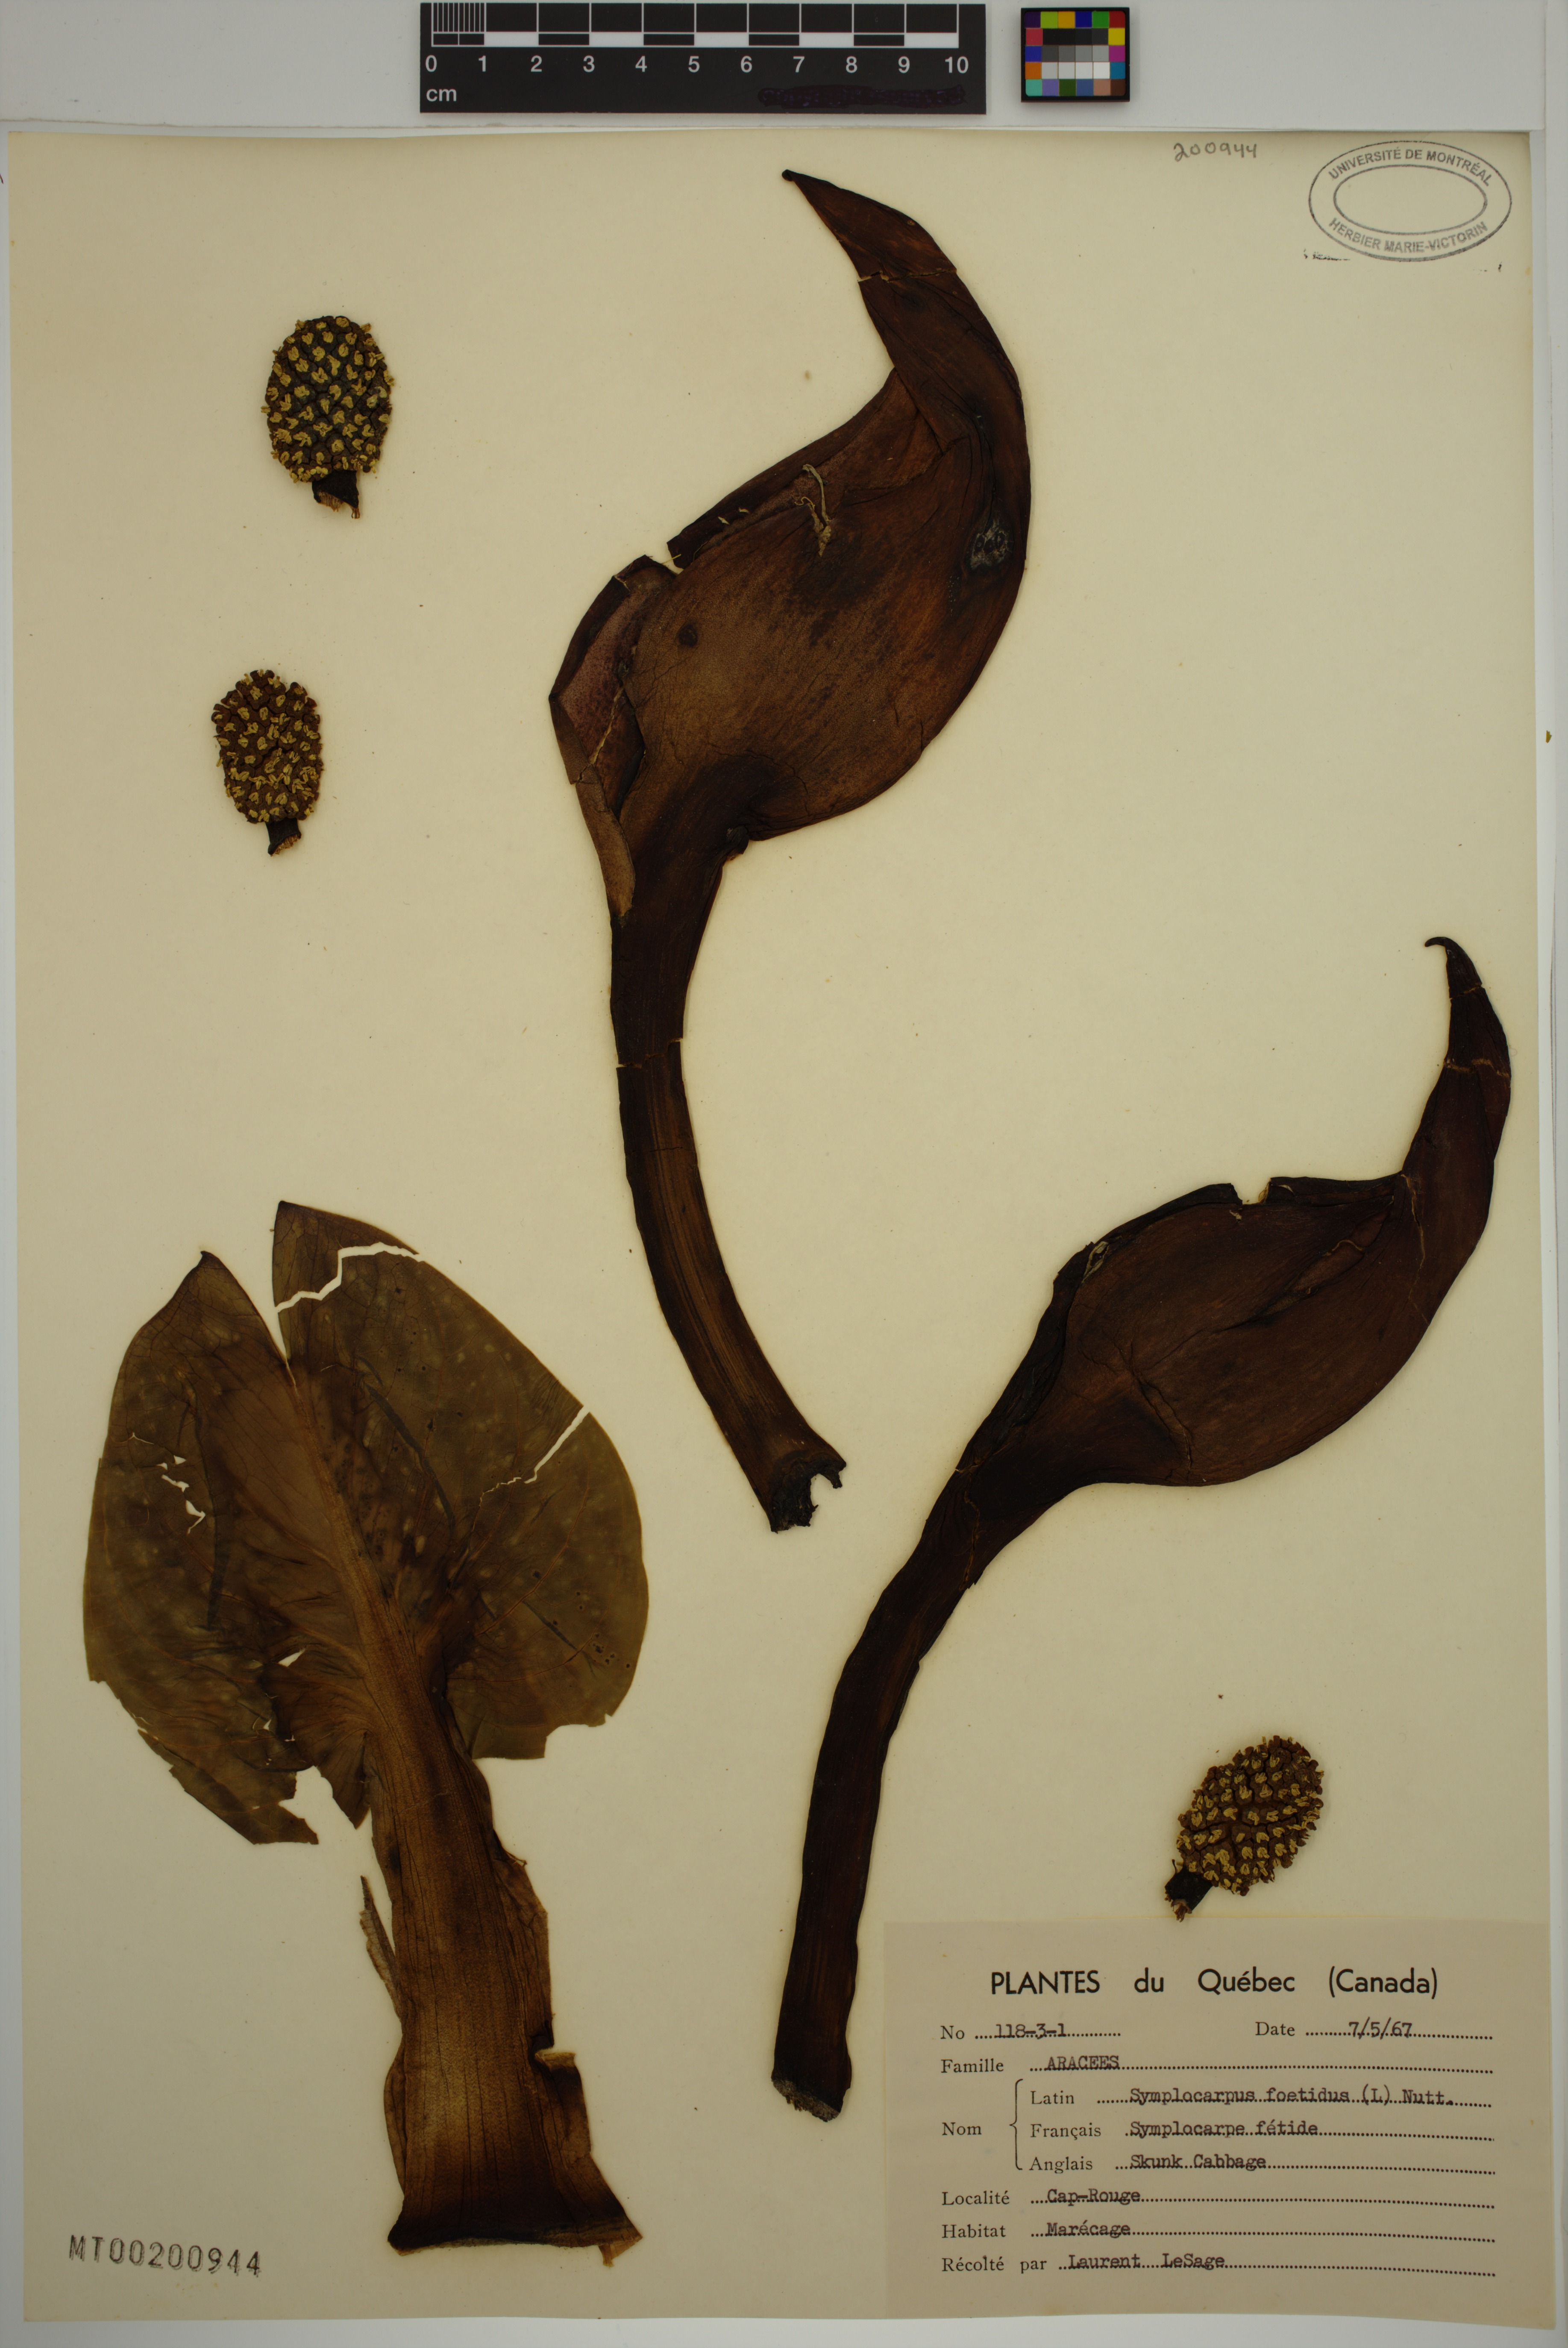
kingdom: Plantae
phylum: Tracheophyta
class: Liliopsida
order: Alismatales
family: Araceae
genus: Symplocarpus
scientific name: Symplocarpus foetidus
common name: Eastern skunk cabbage
